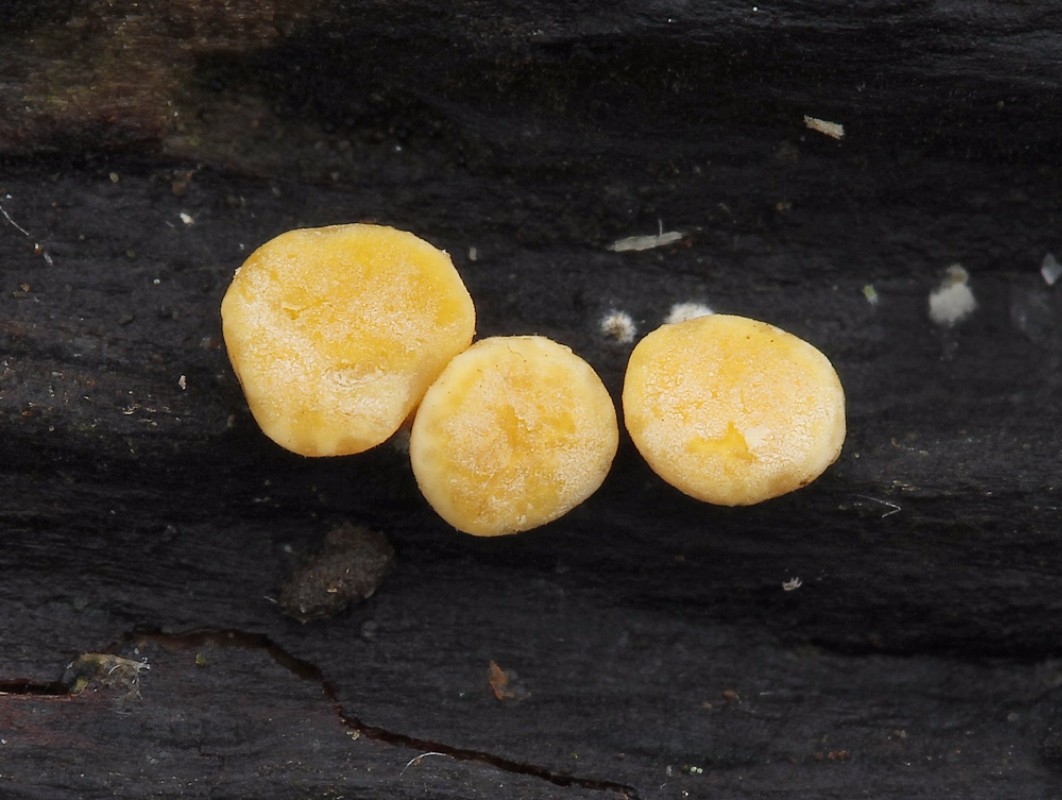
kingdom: Fungi
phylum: Ascomycota
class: Sordariomycetes
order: Hypocreales
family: Hypocreaceae
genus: Trichoderma
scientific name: Trichoderma
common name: kødkerne
